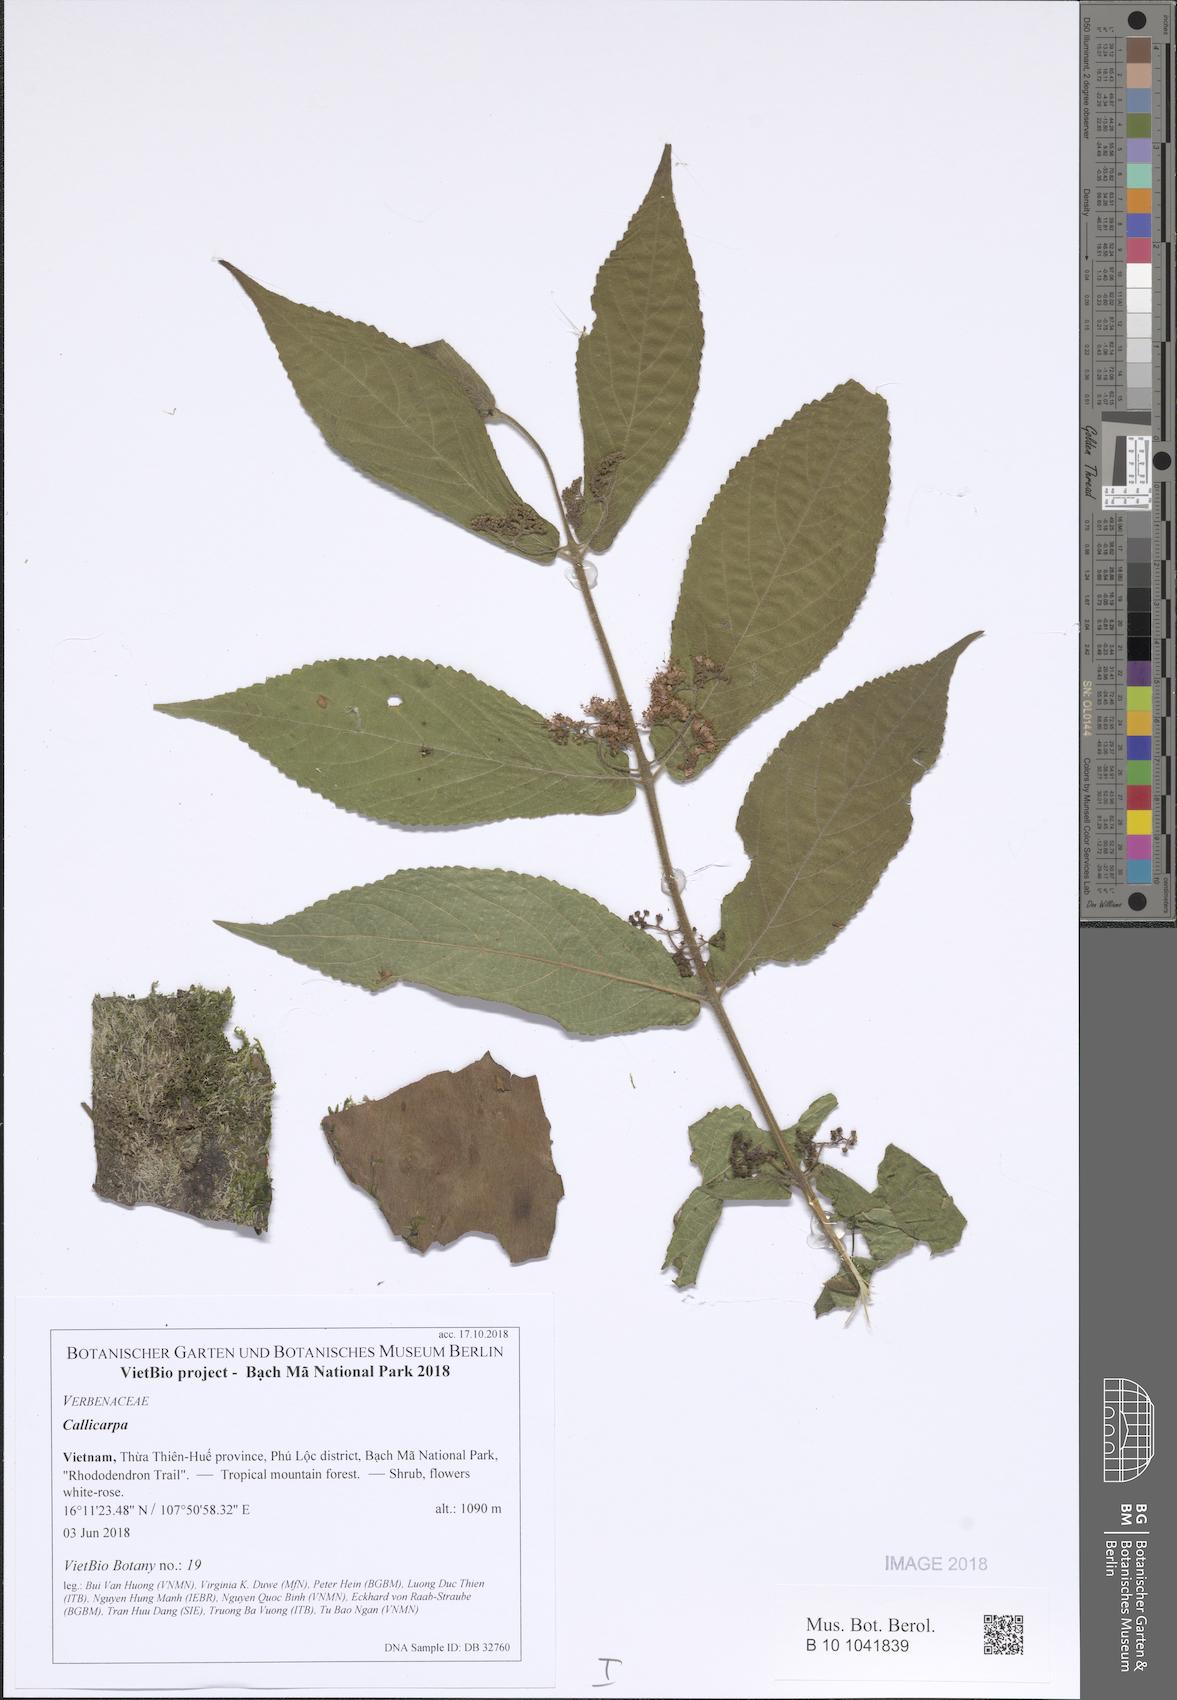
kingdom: Plantae
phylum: Tracheophyta
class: Magnoliopsida
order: Lamiales
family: Lamiaceae
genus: Callicarpa
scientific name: Callicarpa
